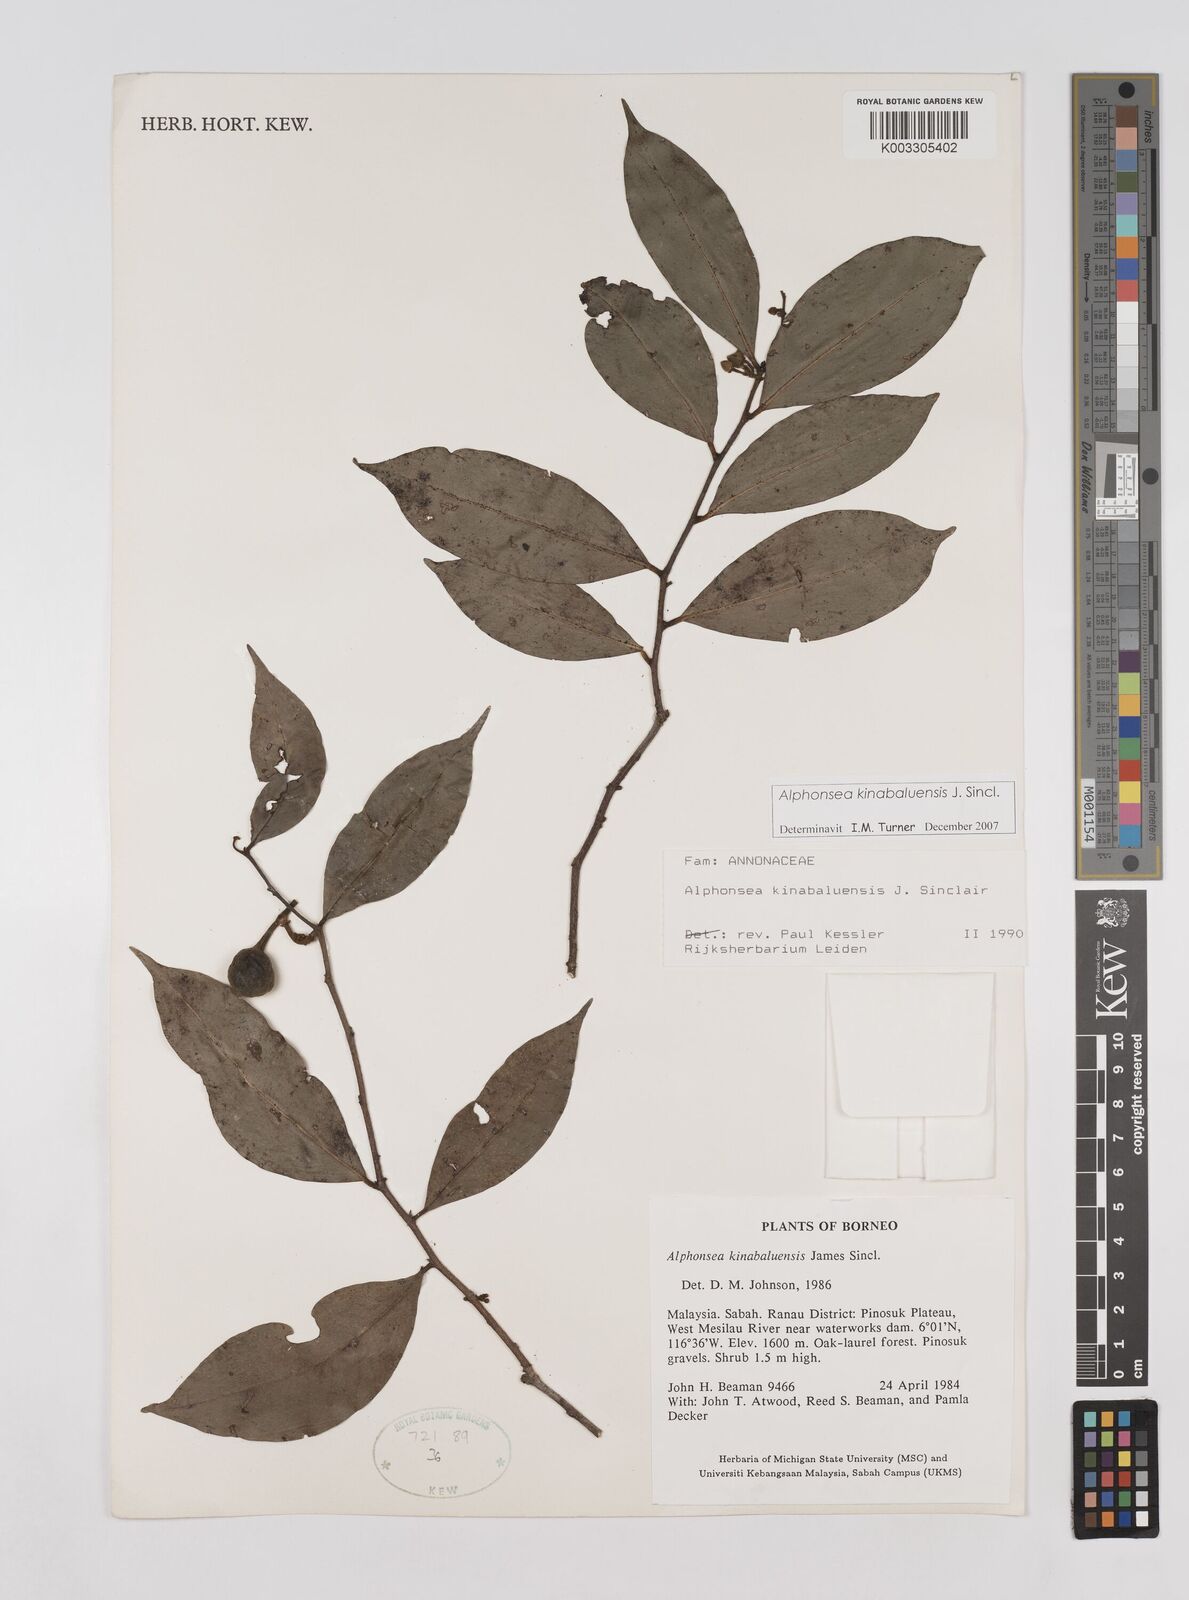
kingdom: Plantae
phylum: Tracheophyta
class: Magnoliopsida
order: Magnoliales
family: Annonaceae
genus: Alphonsea
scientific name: Alphonsea kinabaluensis
